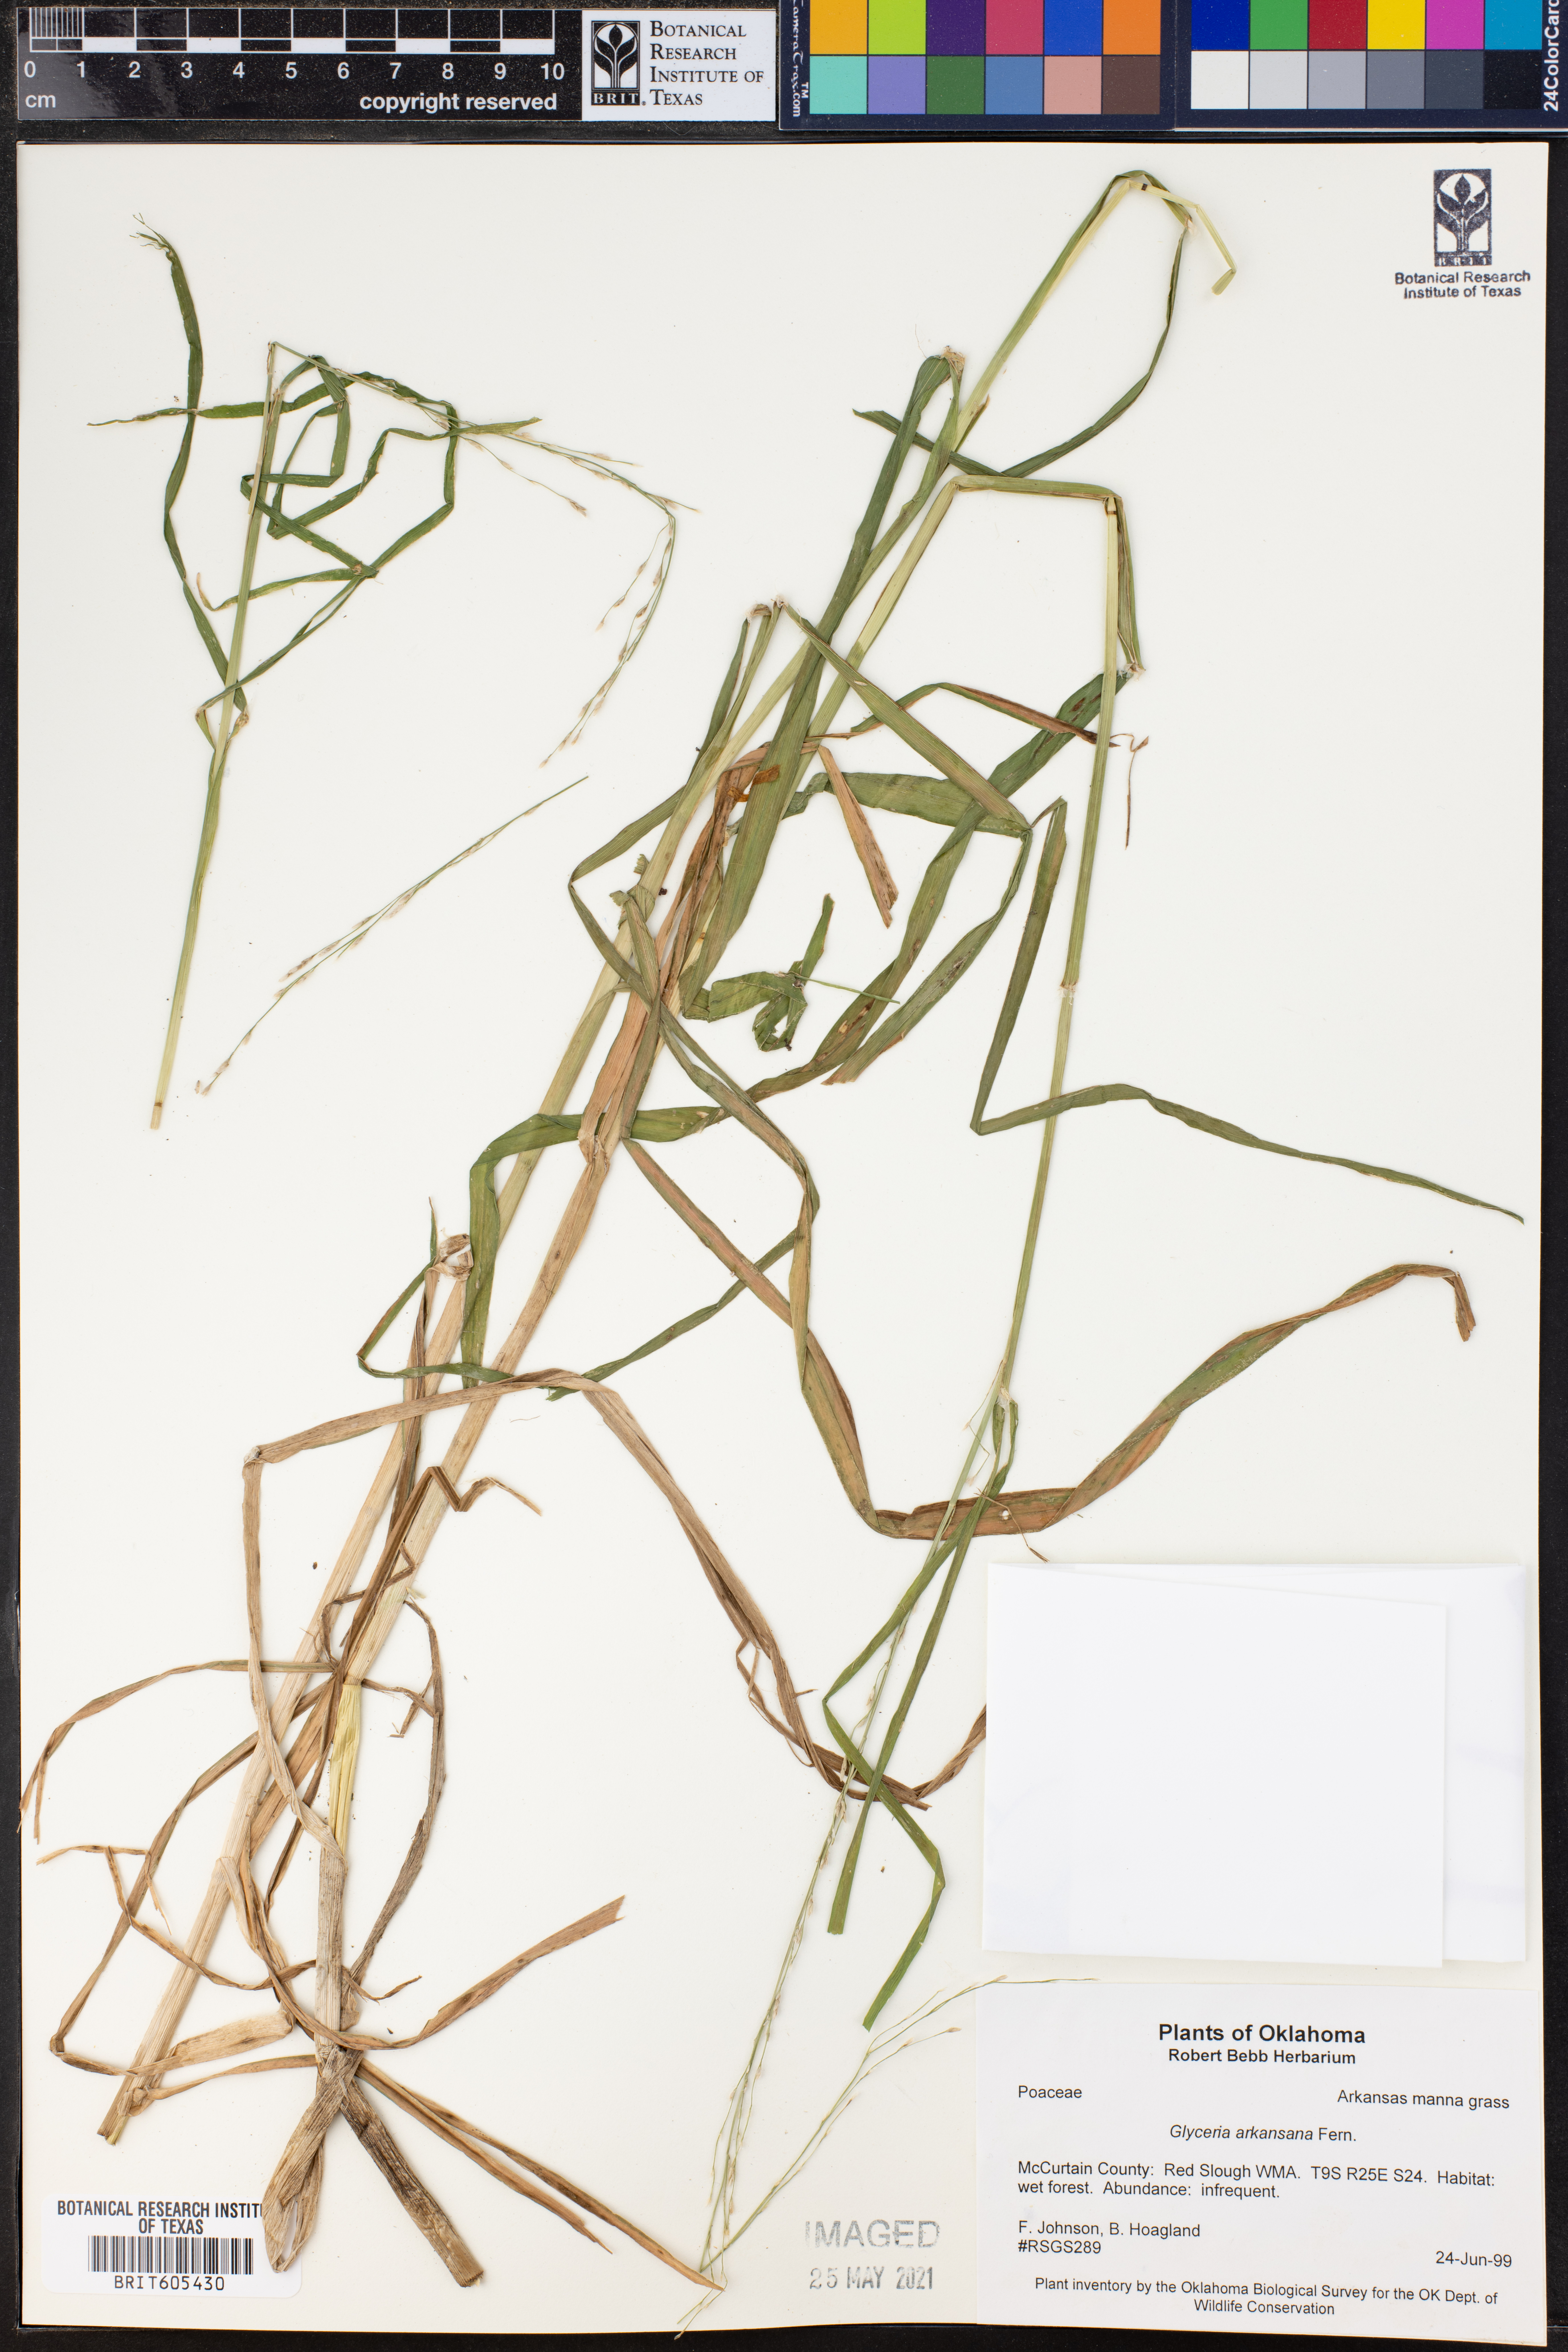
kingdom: Plantae
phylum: Tracheophyta
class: Liliopsida
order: Poales
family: Poaceae
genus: Glyceria
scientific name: Glyceria arkansana
